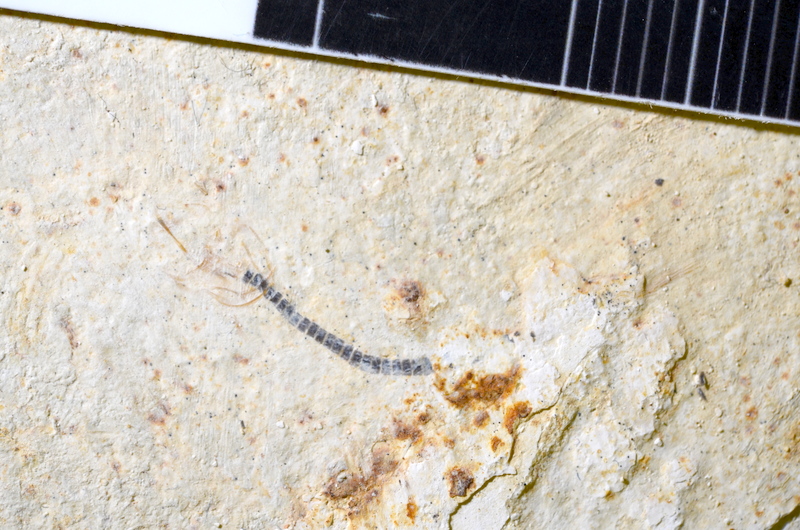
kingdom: Animalia
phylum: Chordata
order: Salmoniformes
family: Orthogonikleithridae
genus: Orthogonikleithrus
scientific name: Orthogonikleithrus hoelli
